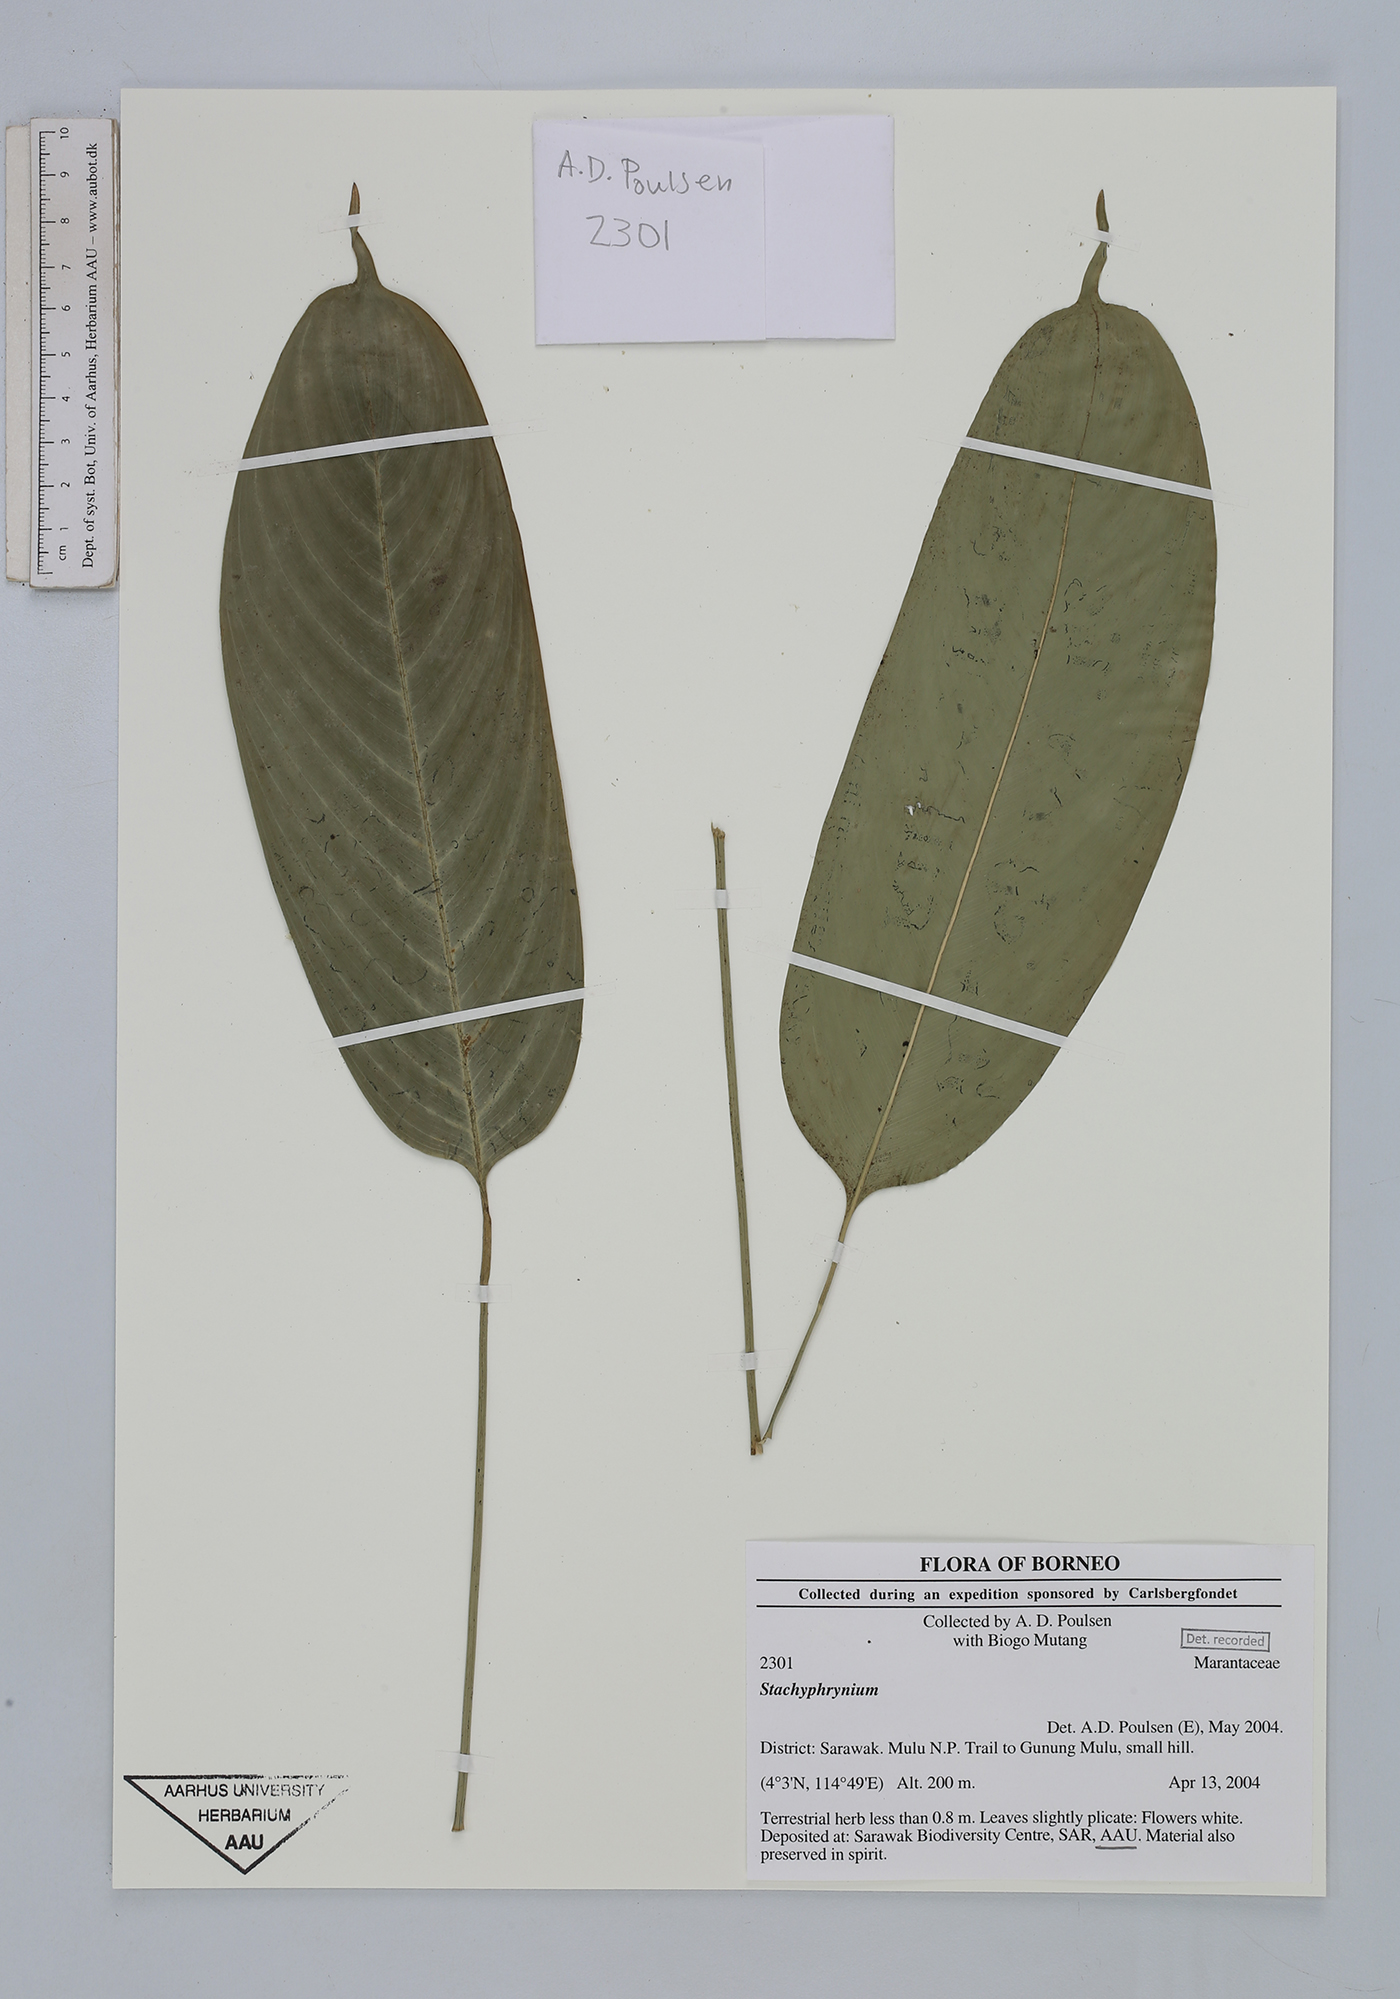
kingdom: Plantae
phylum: Tracheophyta
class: Liliopsida
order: Zingiberales
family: Marantaceae
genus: Stachyphrynium
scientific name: Stachyphrynium
